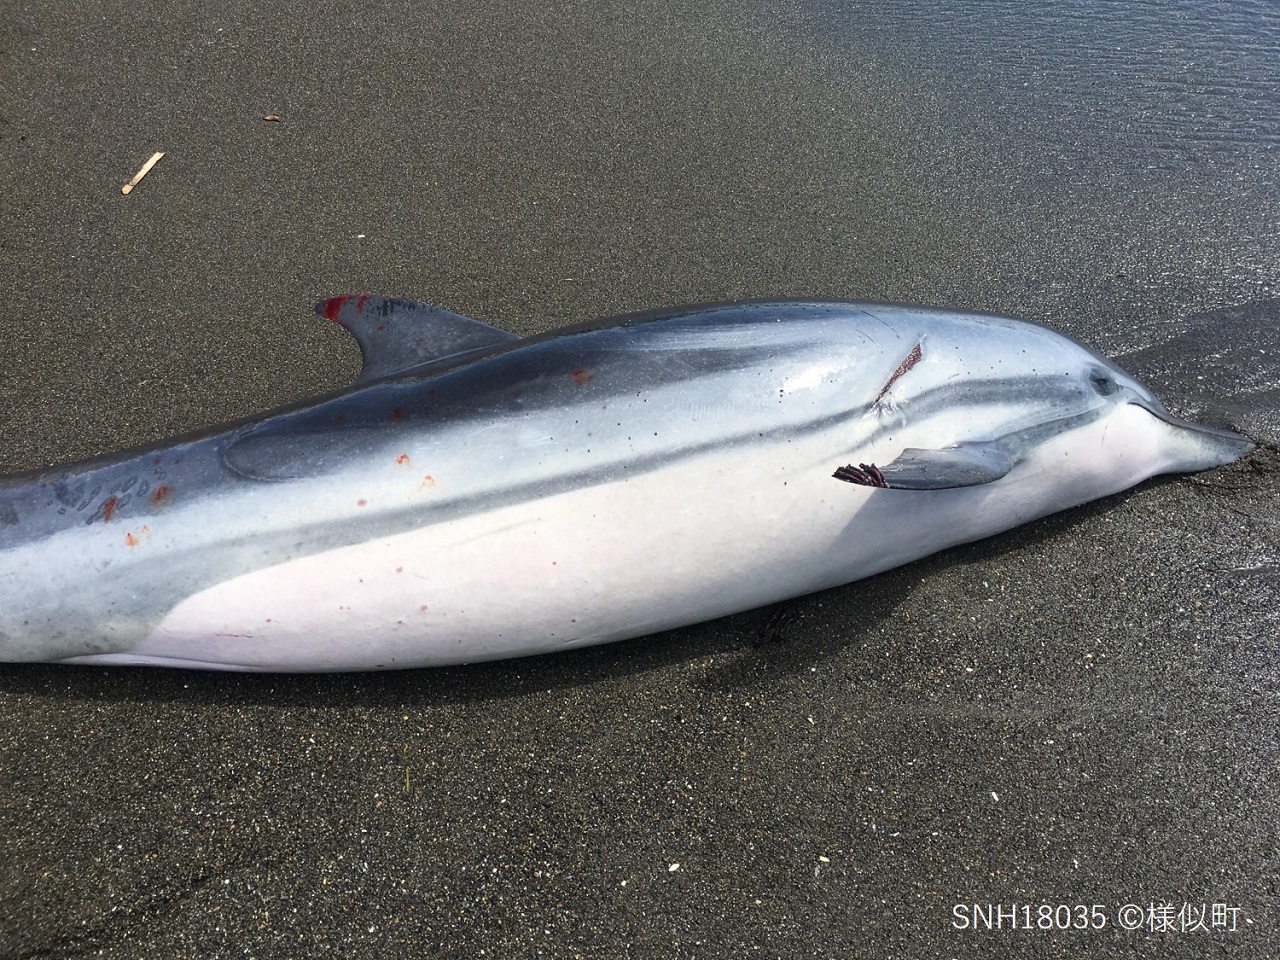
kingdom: Animalia
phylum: Chordata
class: Mammalia
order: Cetacea
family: Delphinidae
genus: Stenella
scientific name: Stenella coeruleoalba
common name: Striped dolphin
